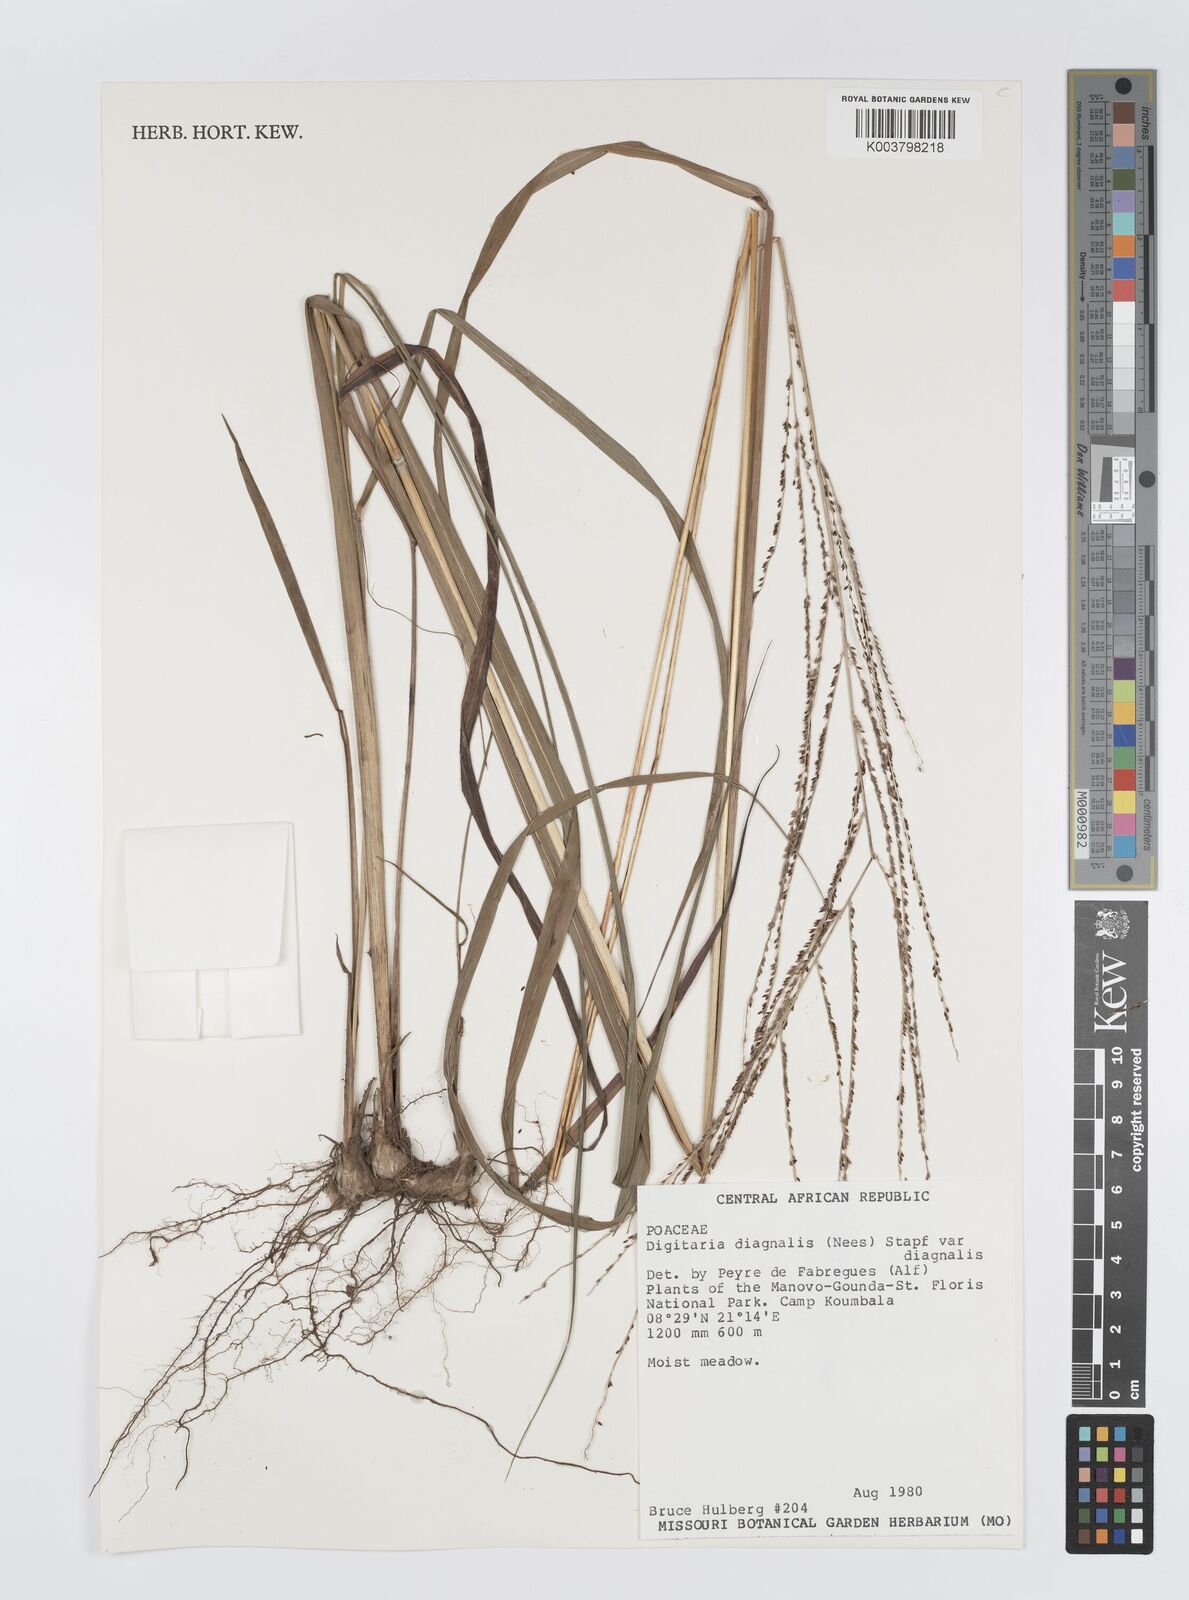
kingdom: Plantae
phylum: Tracheophyta
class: Liliopsida
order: Poales
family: Poaceae
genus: Digitaria
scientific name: Digitaria diagonalis
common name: Brown-seed finger grass
